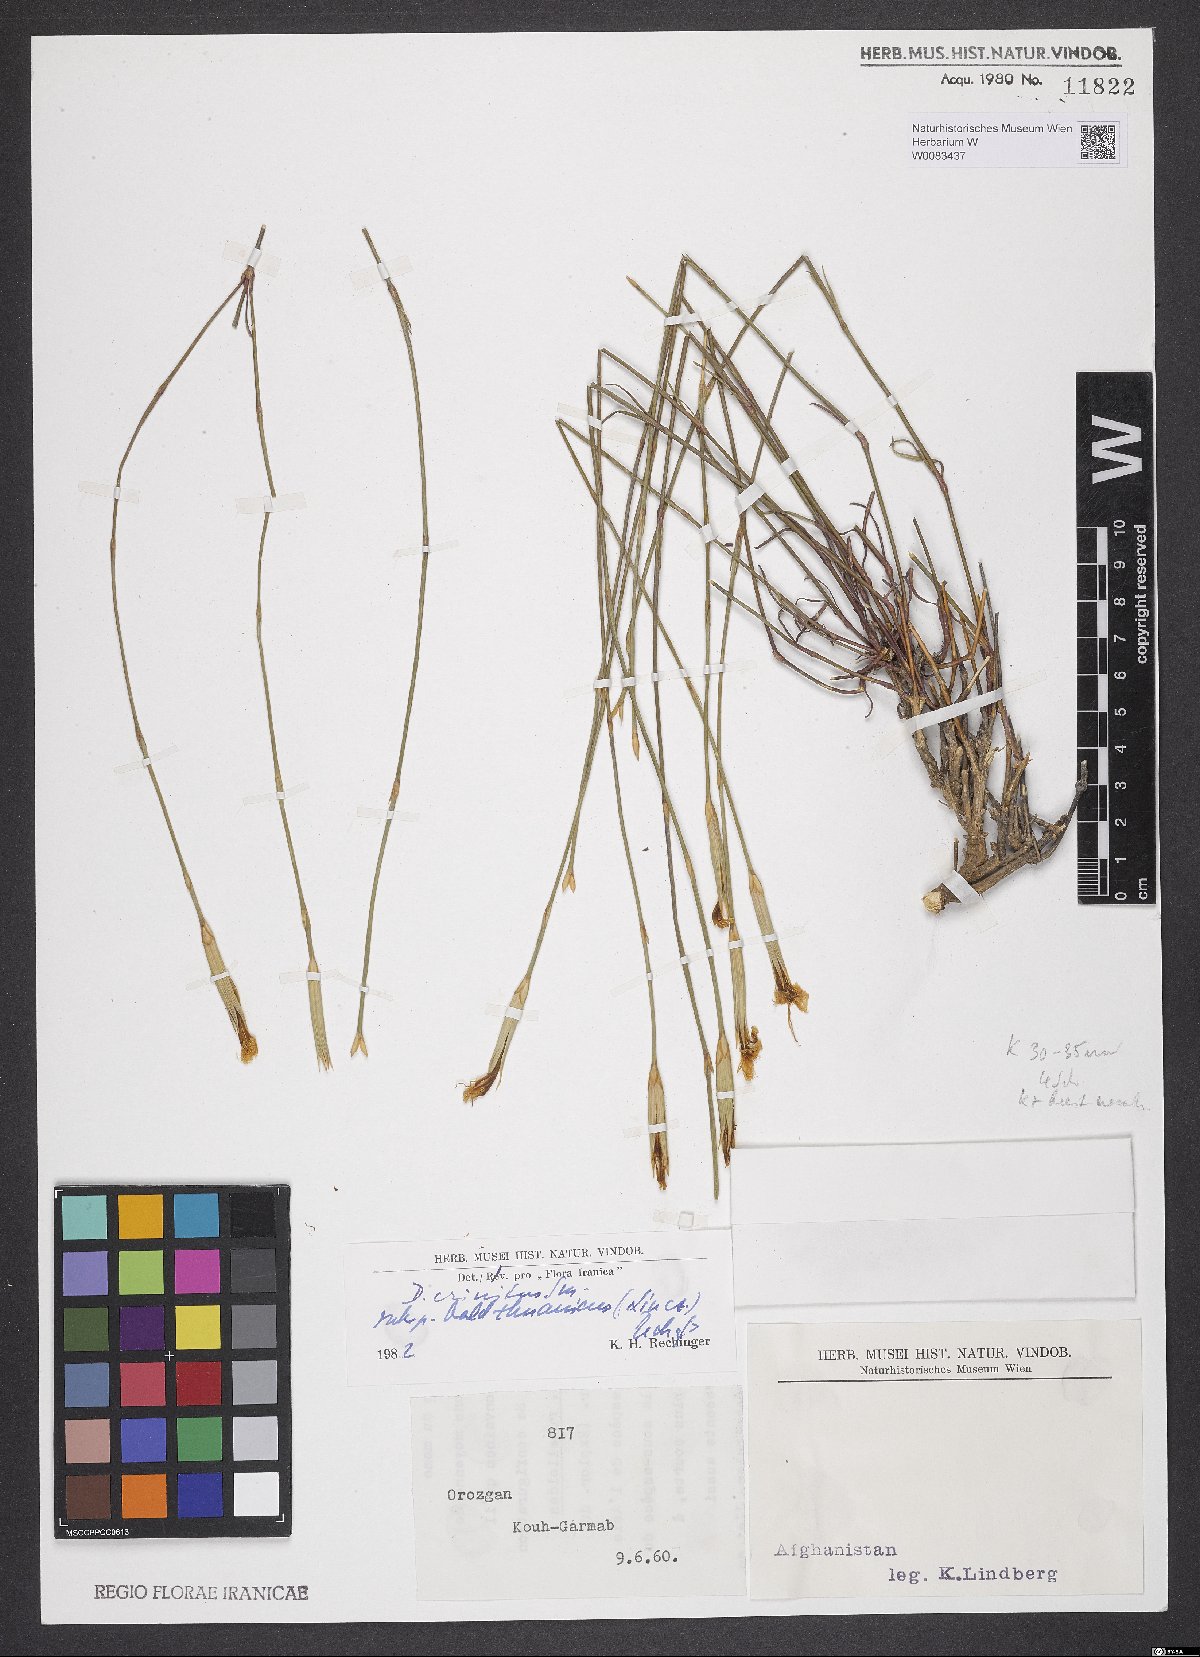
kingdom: Plantae
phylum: Tracheophyta
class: Magnoliopsida
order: Caryophyllales
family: Caryophyllaceae
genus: Dianthus
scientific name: Dianthus crinitus
